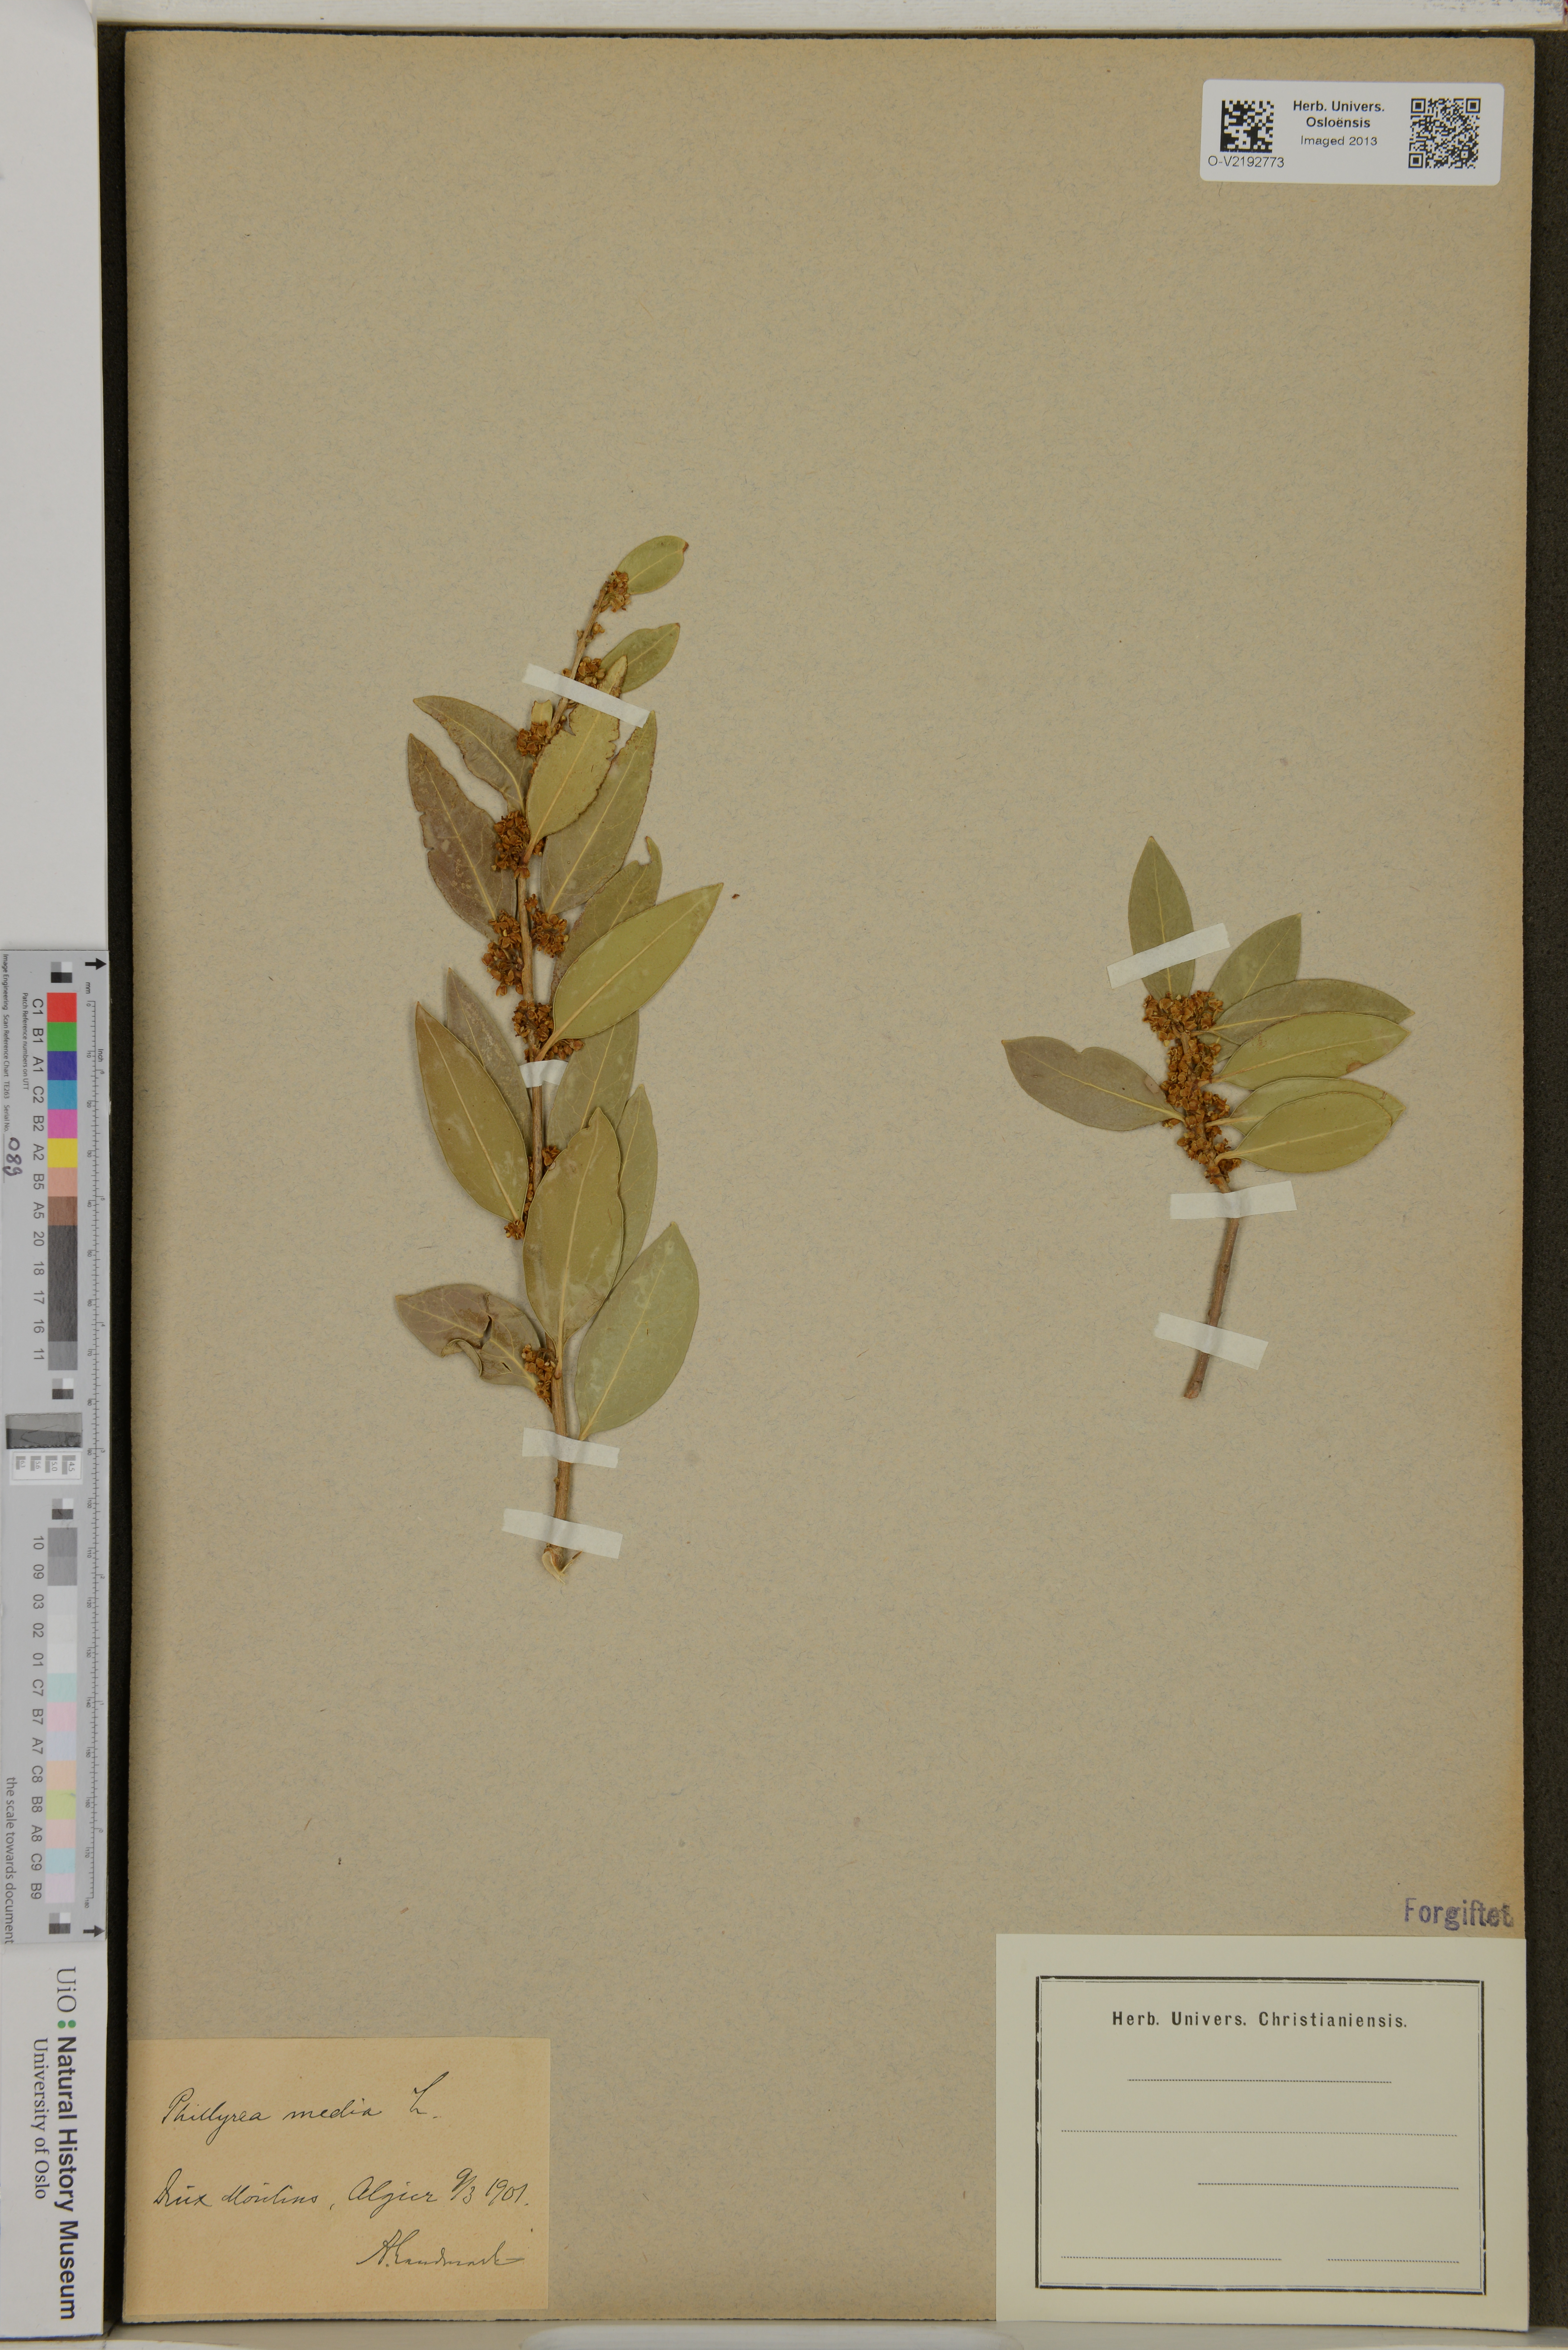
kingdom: Plantae
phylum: Tracheophyta
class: Magnoliopsida
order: Lamiales
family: Oleaceae
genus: Phillyrea
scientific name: Phillyrea media
